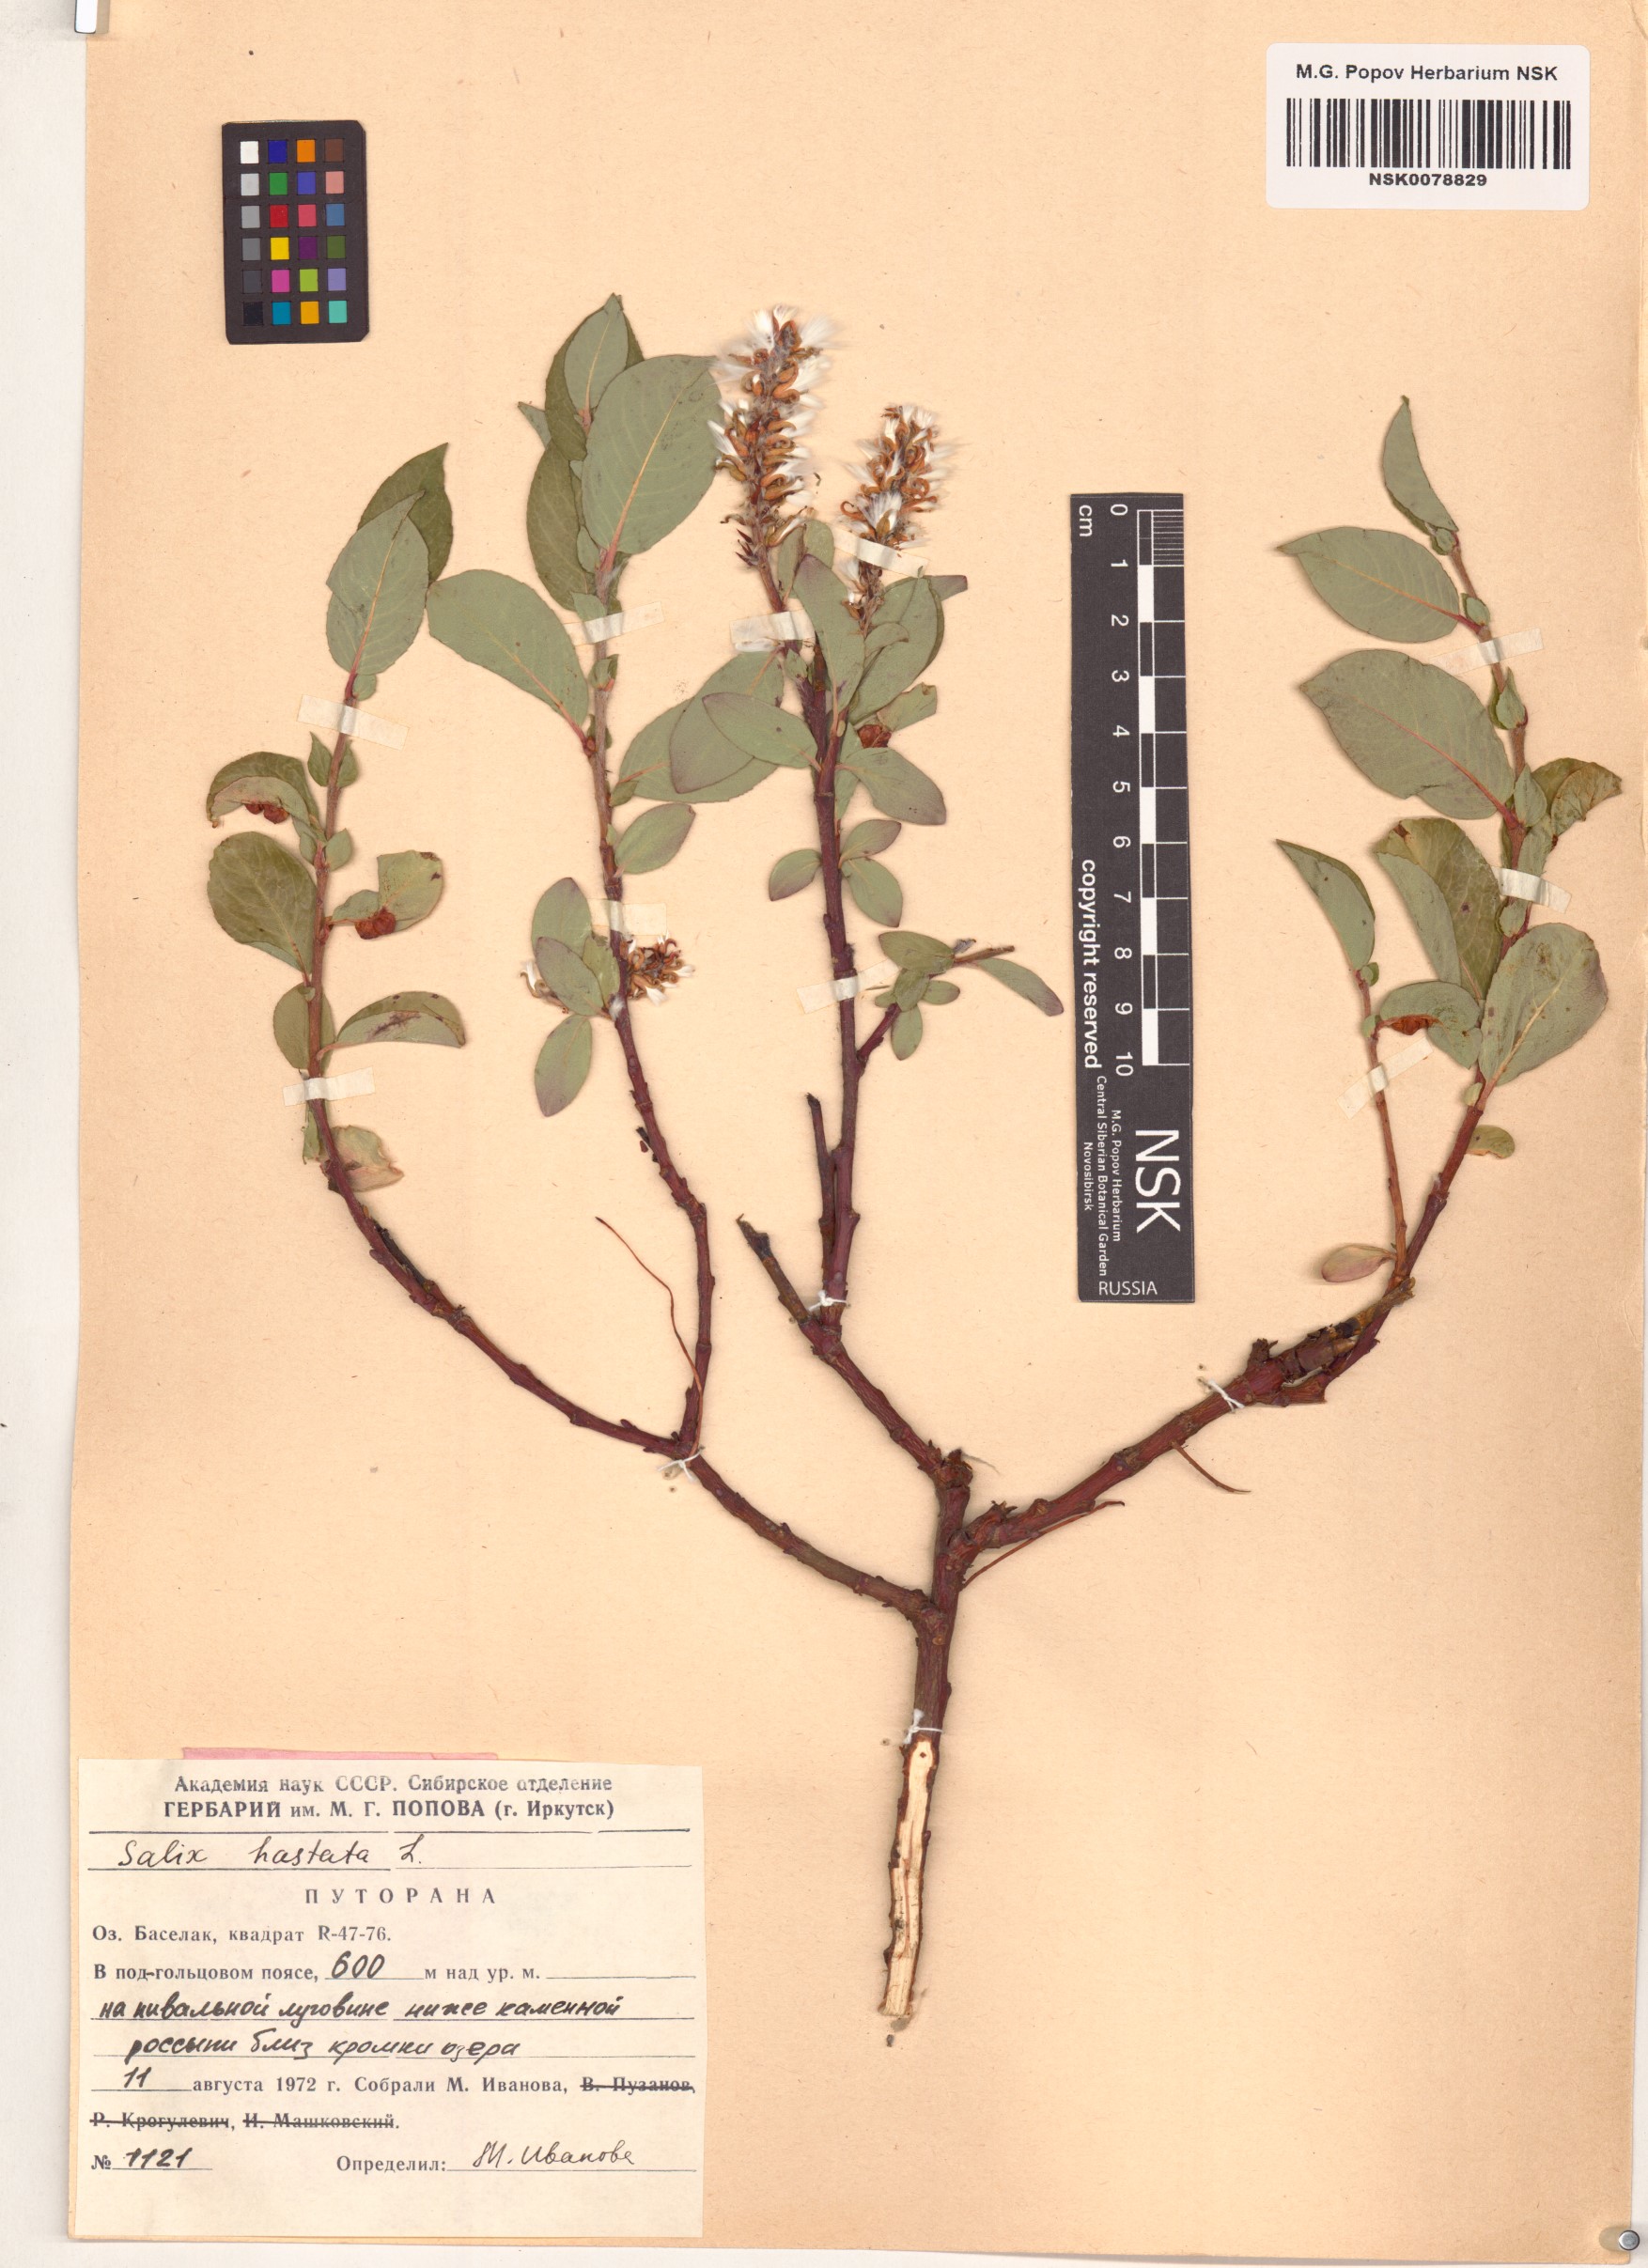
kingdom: Plantae
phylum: Tracheophyta
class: Magnoliopsida
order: Malpighiales
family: Salicaceae
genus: Salix
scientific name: Salix hastata
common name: Halberd willow
